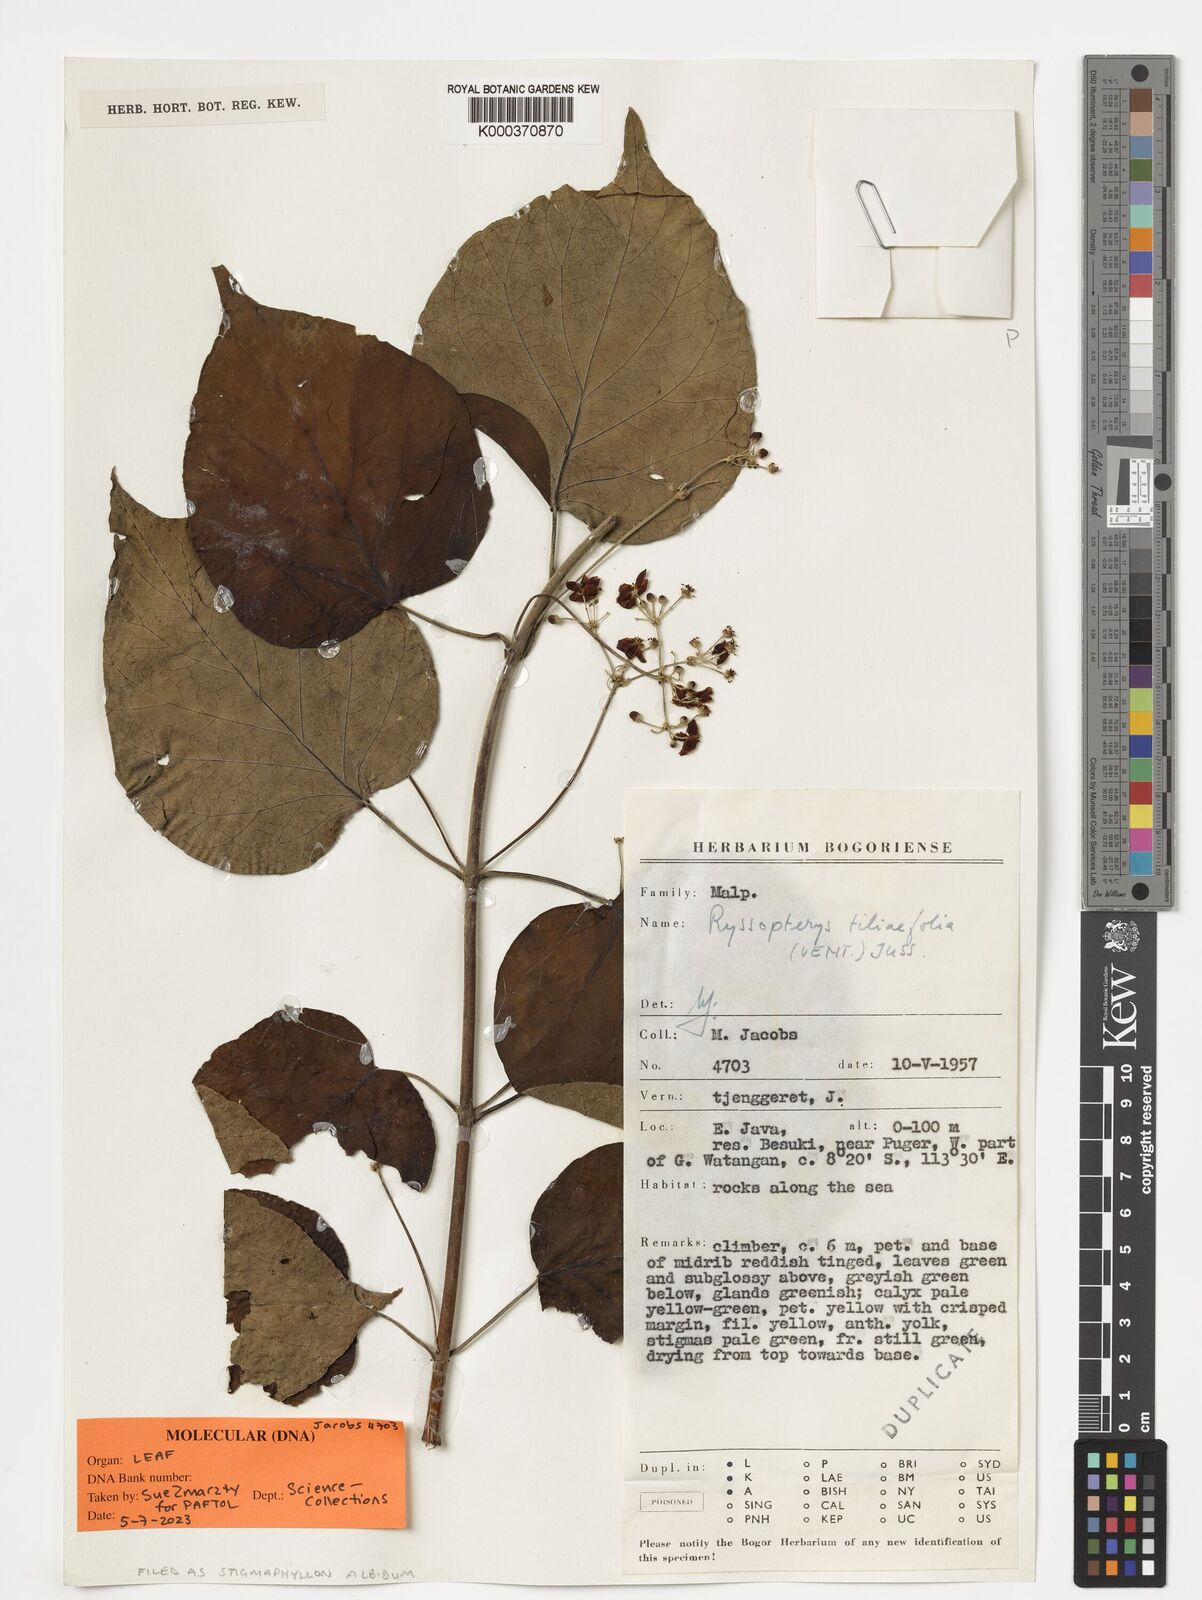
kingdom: Plantae
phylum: Tracheophyta
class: Magnoliopsida
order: Malpighiales
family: Malpighiaceae
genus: Stigmaphyllon
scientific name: Stigmaphyllon albidum
